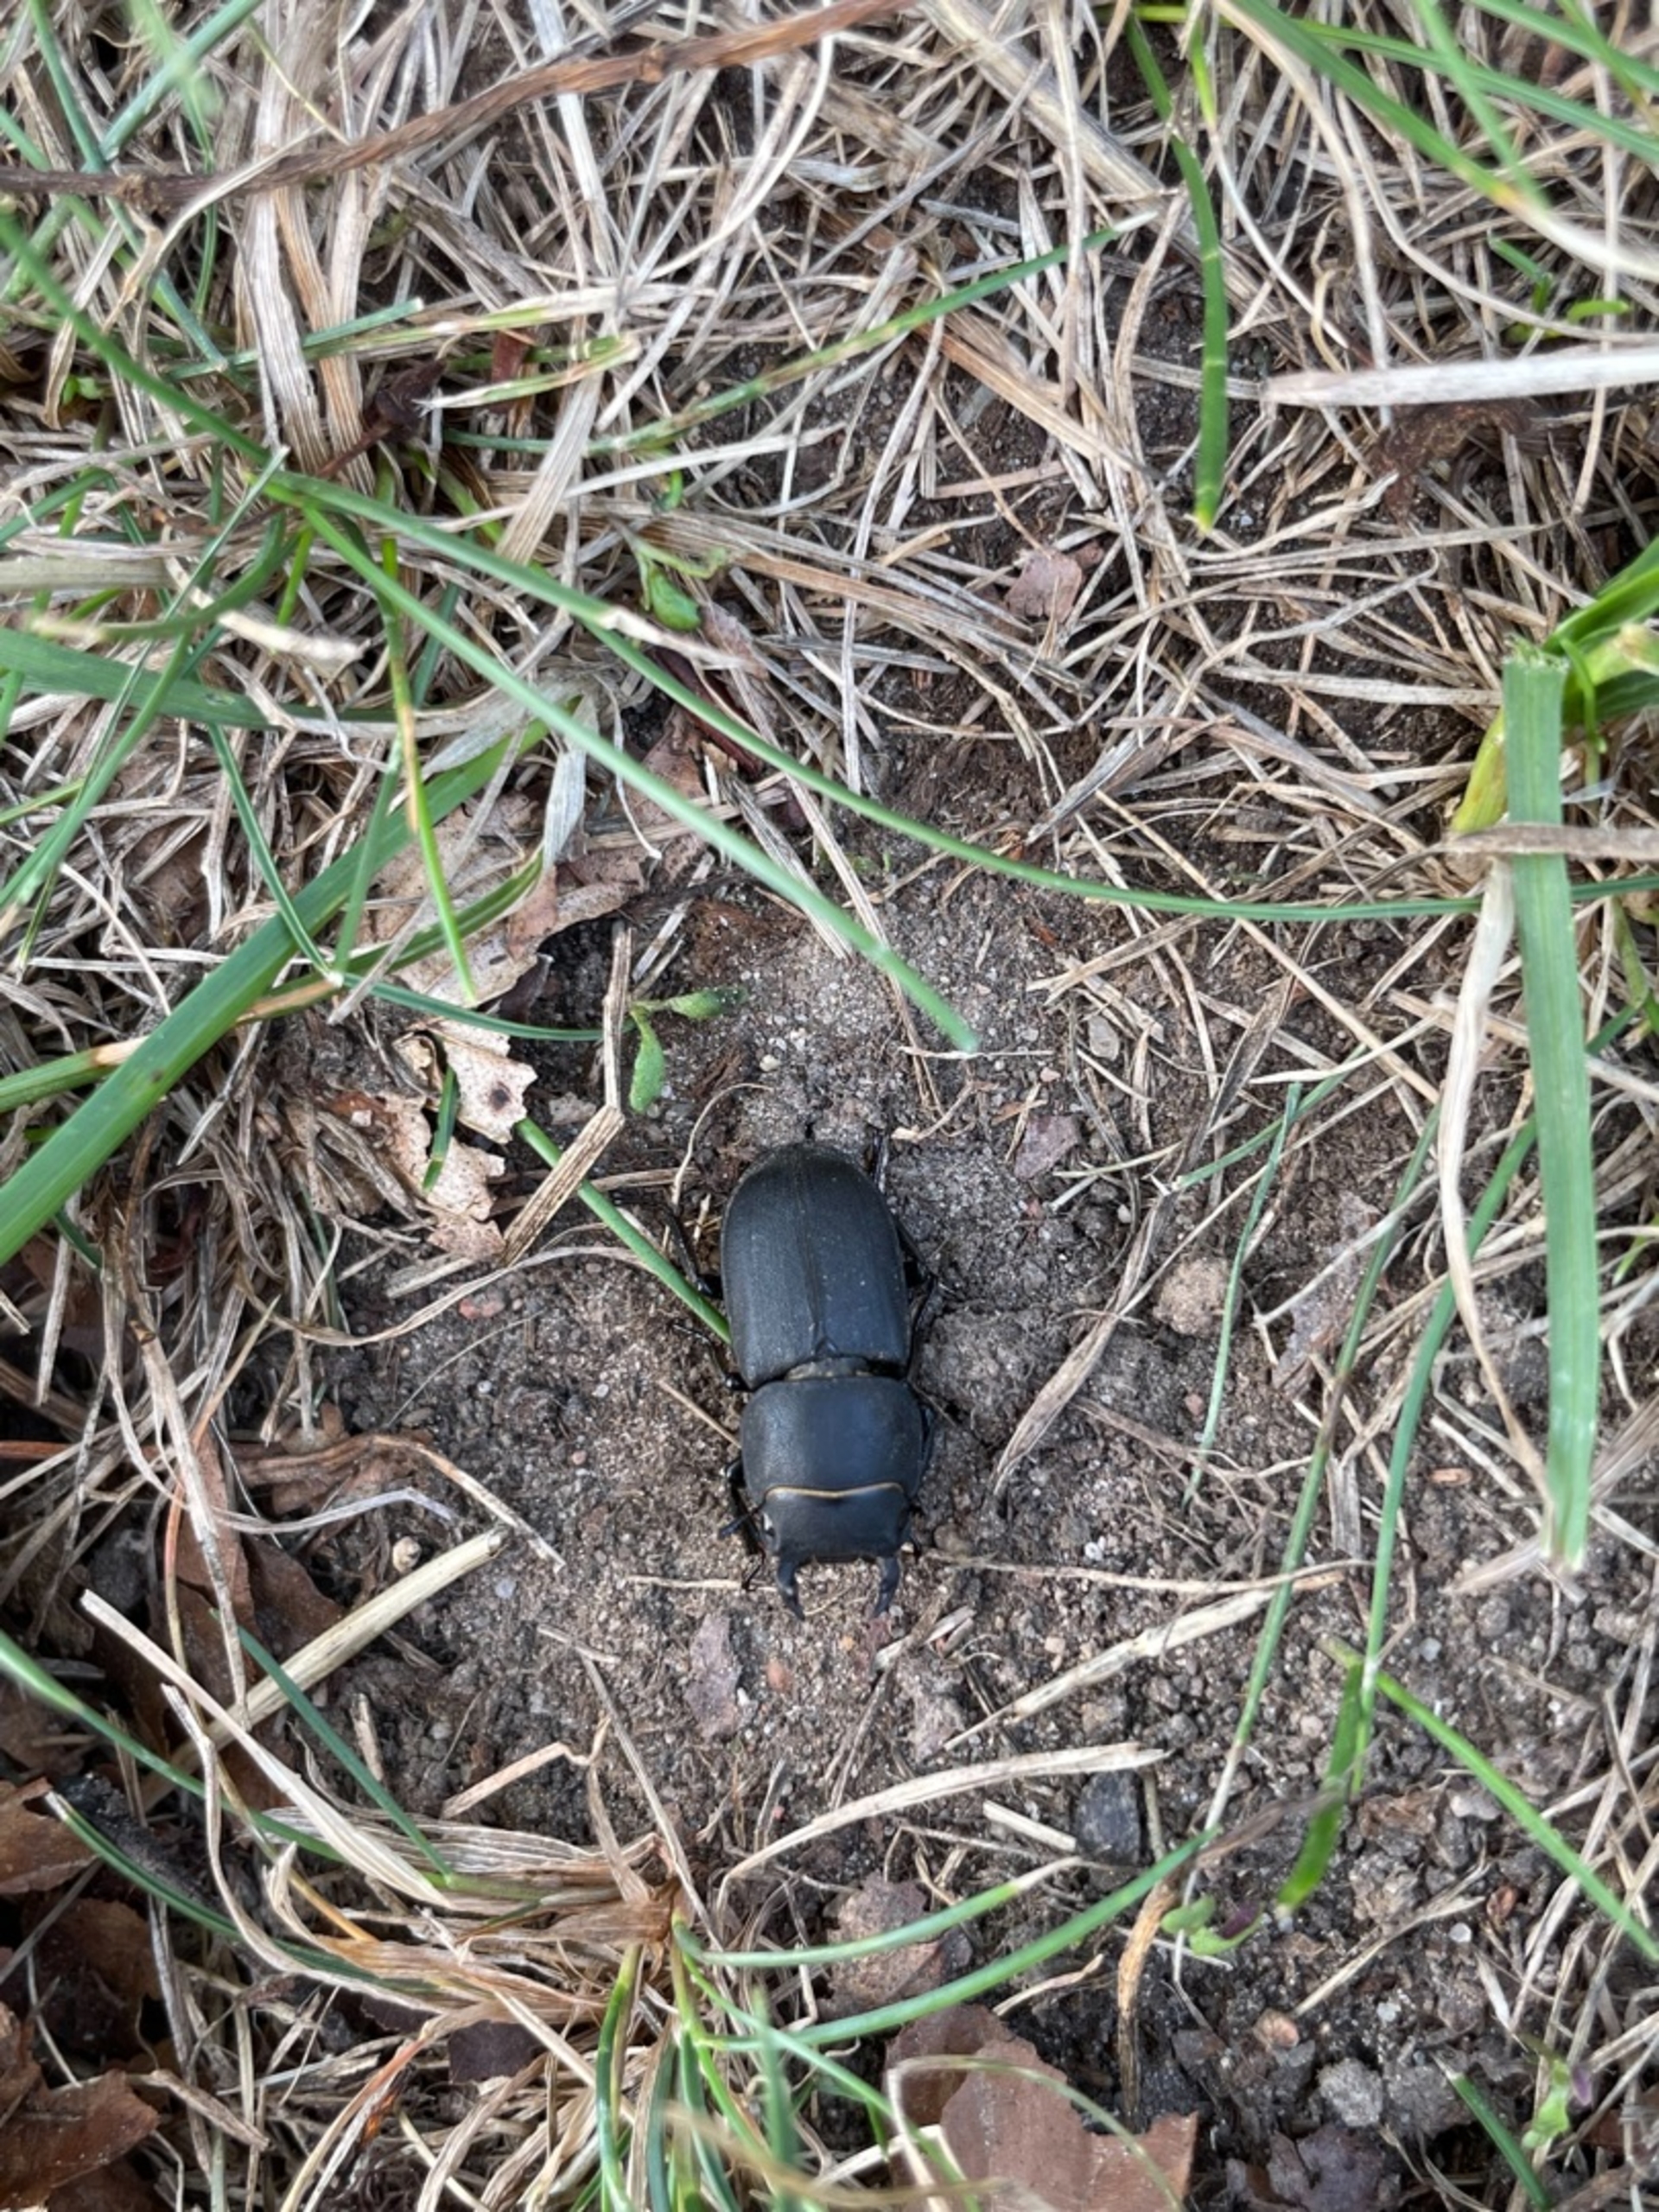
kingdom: Animalia
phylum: Arthropoda
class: Insecta
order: Coleoptera
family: Lucanidae
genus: Dorcus
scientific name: Dorcus parallelipipedus
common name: Bøghjort
